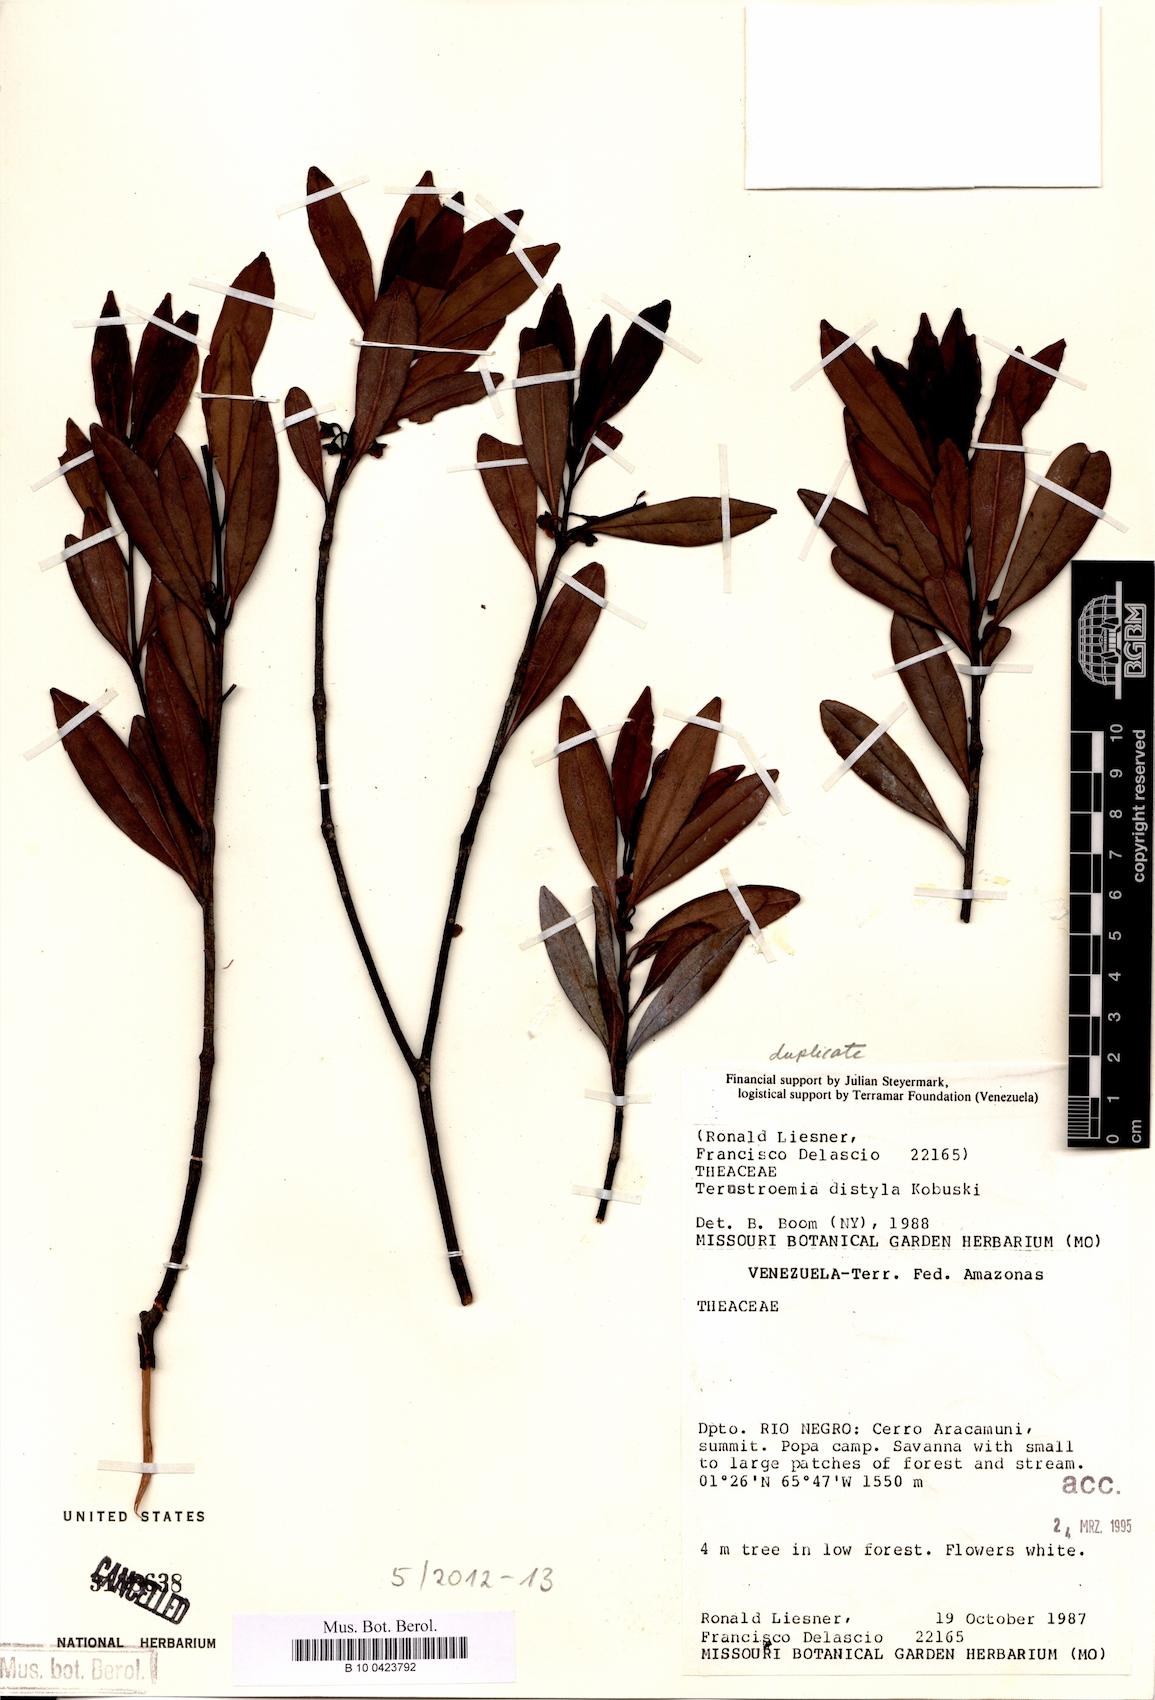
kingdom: Plantae
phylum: Tracheophyta
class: Magnoliopsida
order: Ericales
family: Pentaphylacaceae
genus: Ternstroemia
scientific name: Ternstroemia distyla
